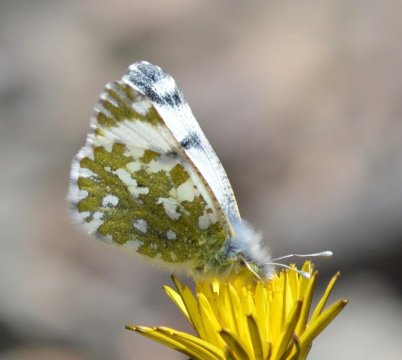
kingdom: Animalia
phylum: Arthropoda
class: Insecta
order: Lepidoptera
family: Pieridae
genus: Euchloe
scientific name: Euchloe creusa
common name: Northern Marble
